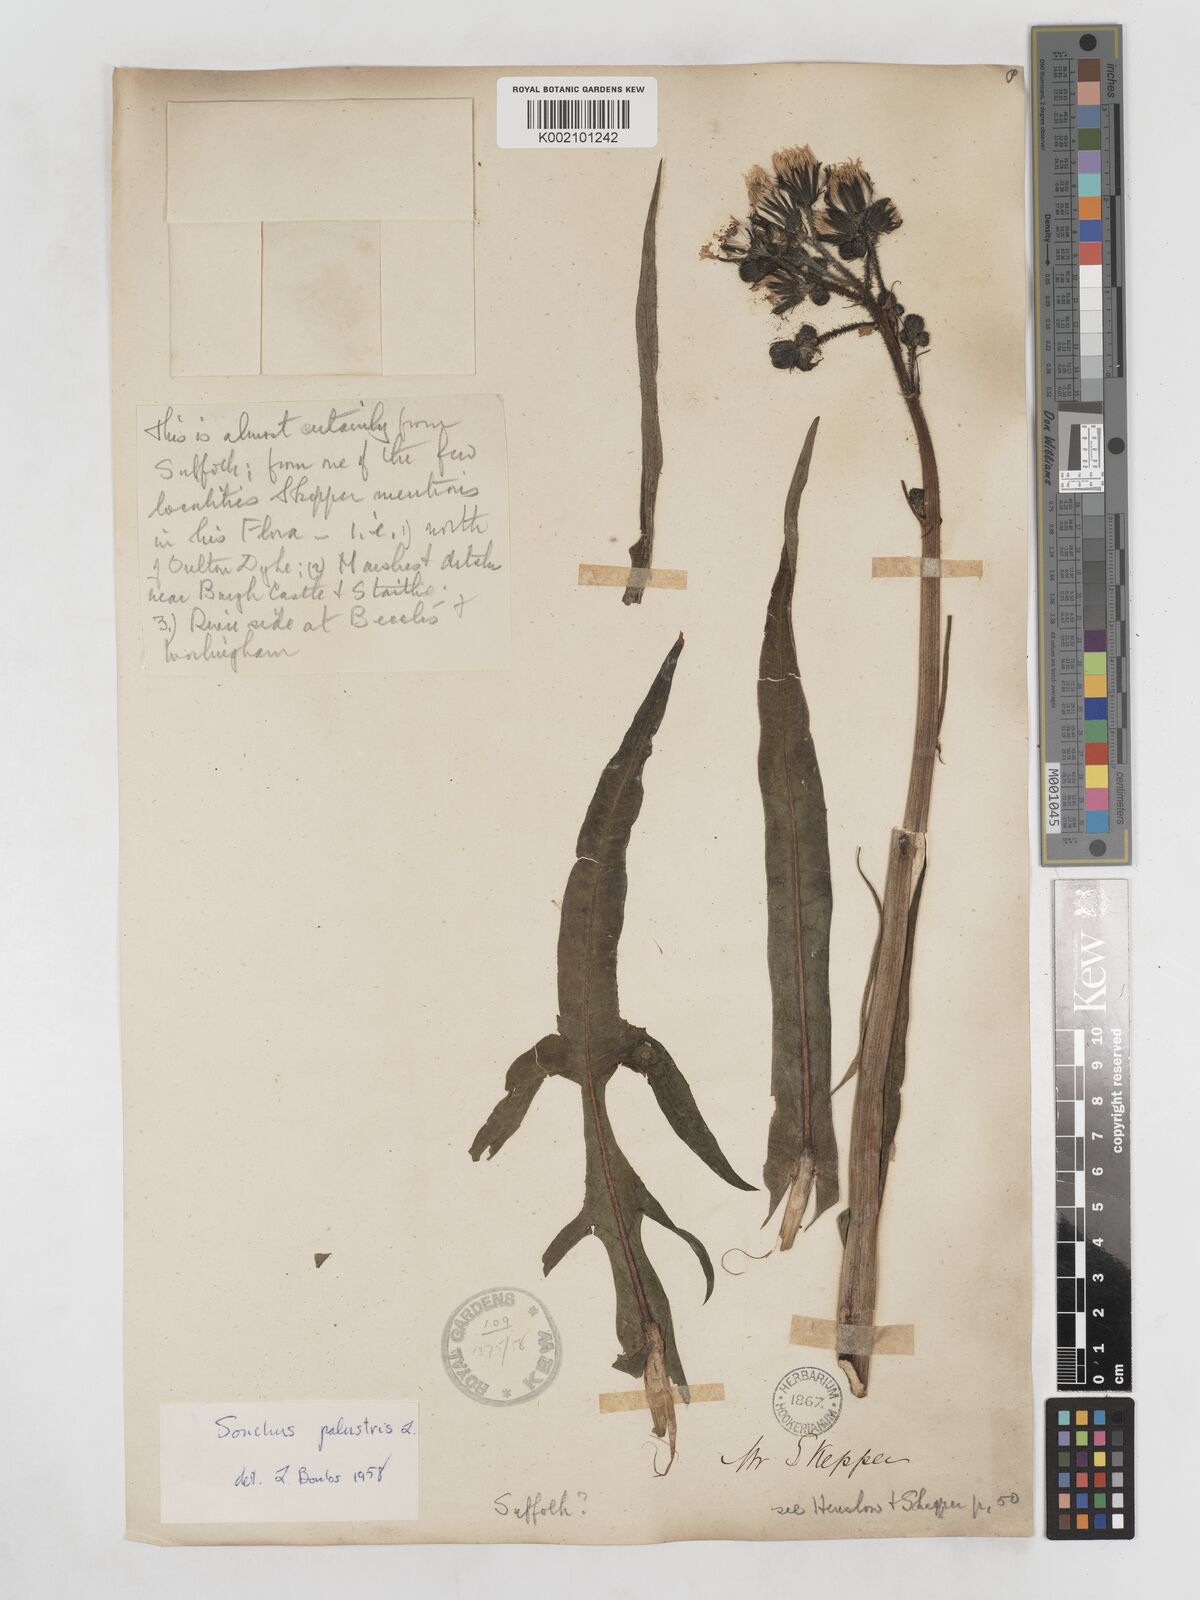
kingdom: Plantae
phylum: Tracheophyta
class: Magnoliopsida
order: Asterales
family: Asteraceae
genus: Sonchus
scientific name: Sonchus palustris
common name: Marsh sow-thistle
